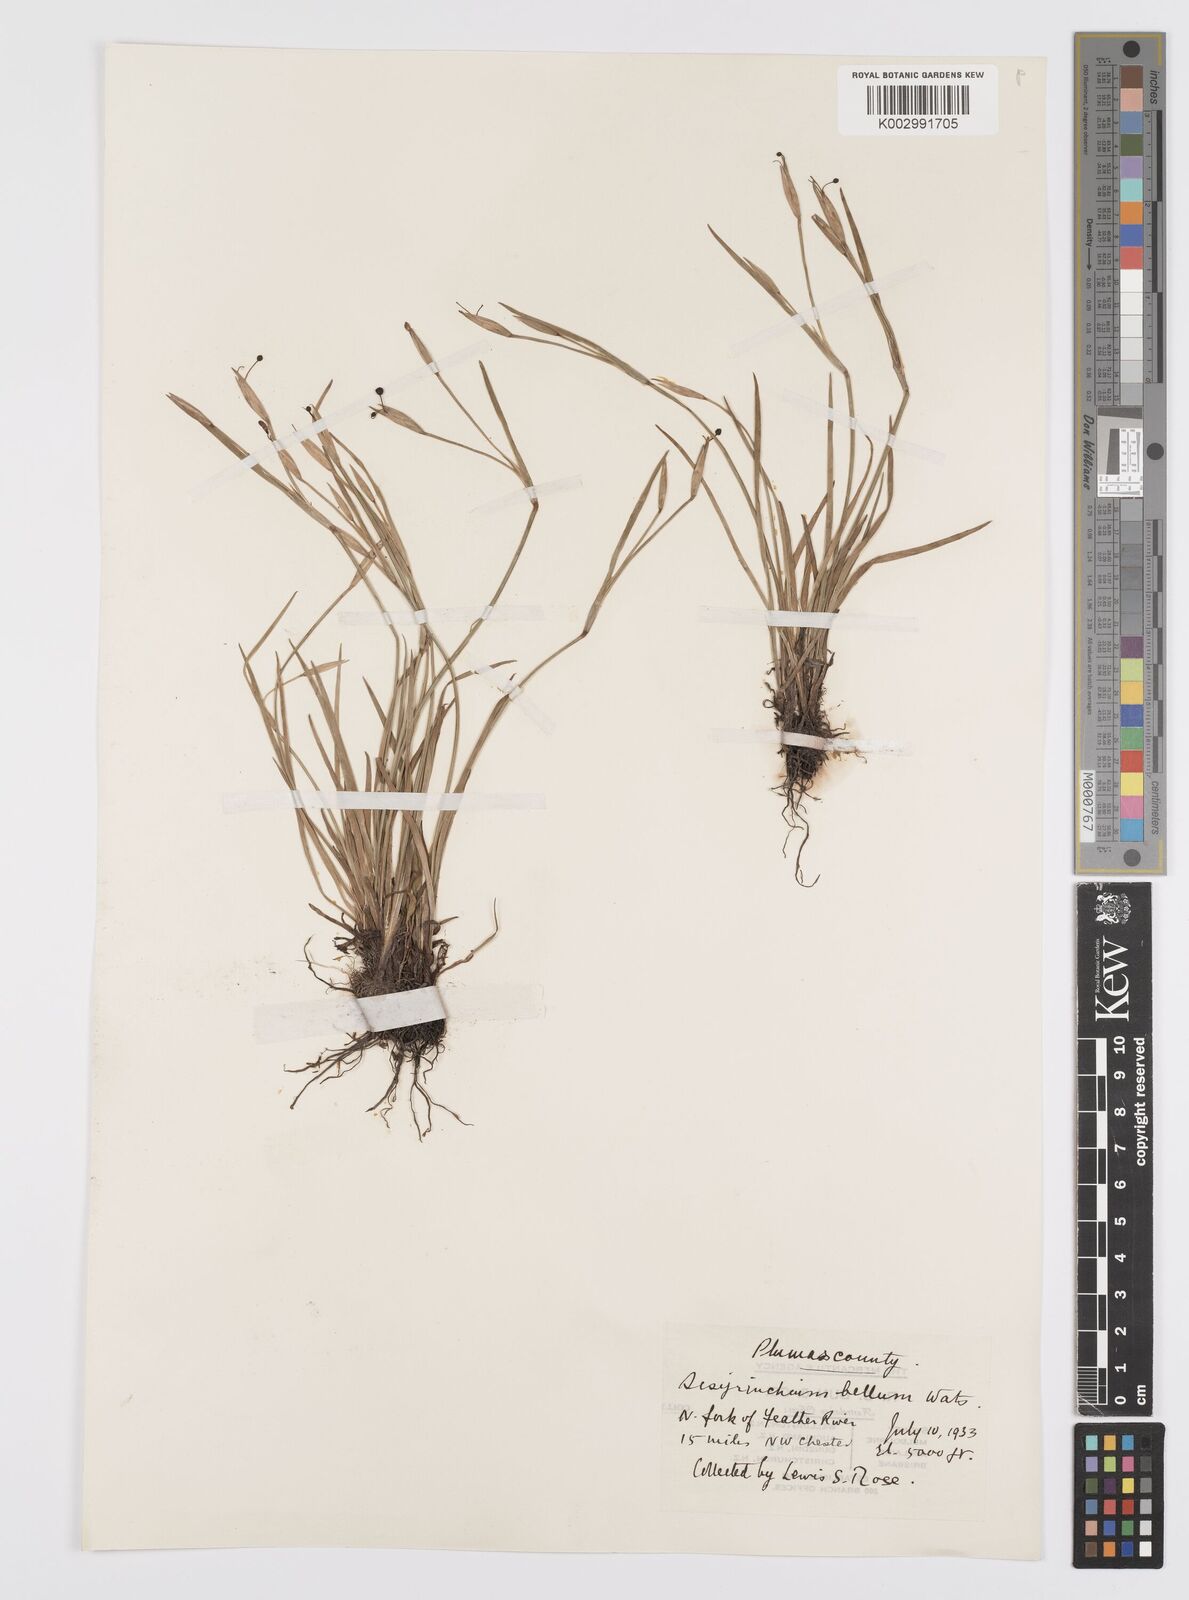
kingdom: Plantae
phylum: Tracheophyta
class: Liliopsida
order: Asparagales
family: Iridaceae
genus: Sisyrinchium
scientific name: Sisyrinchium bellum
